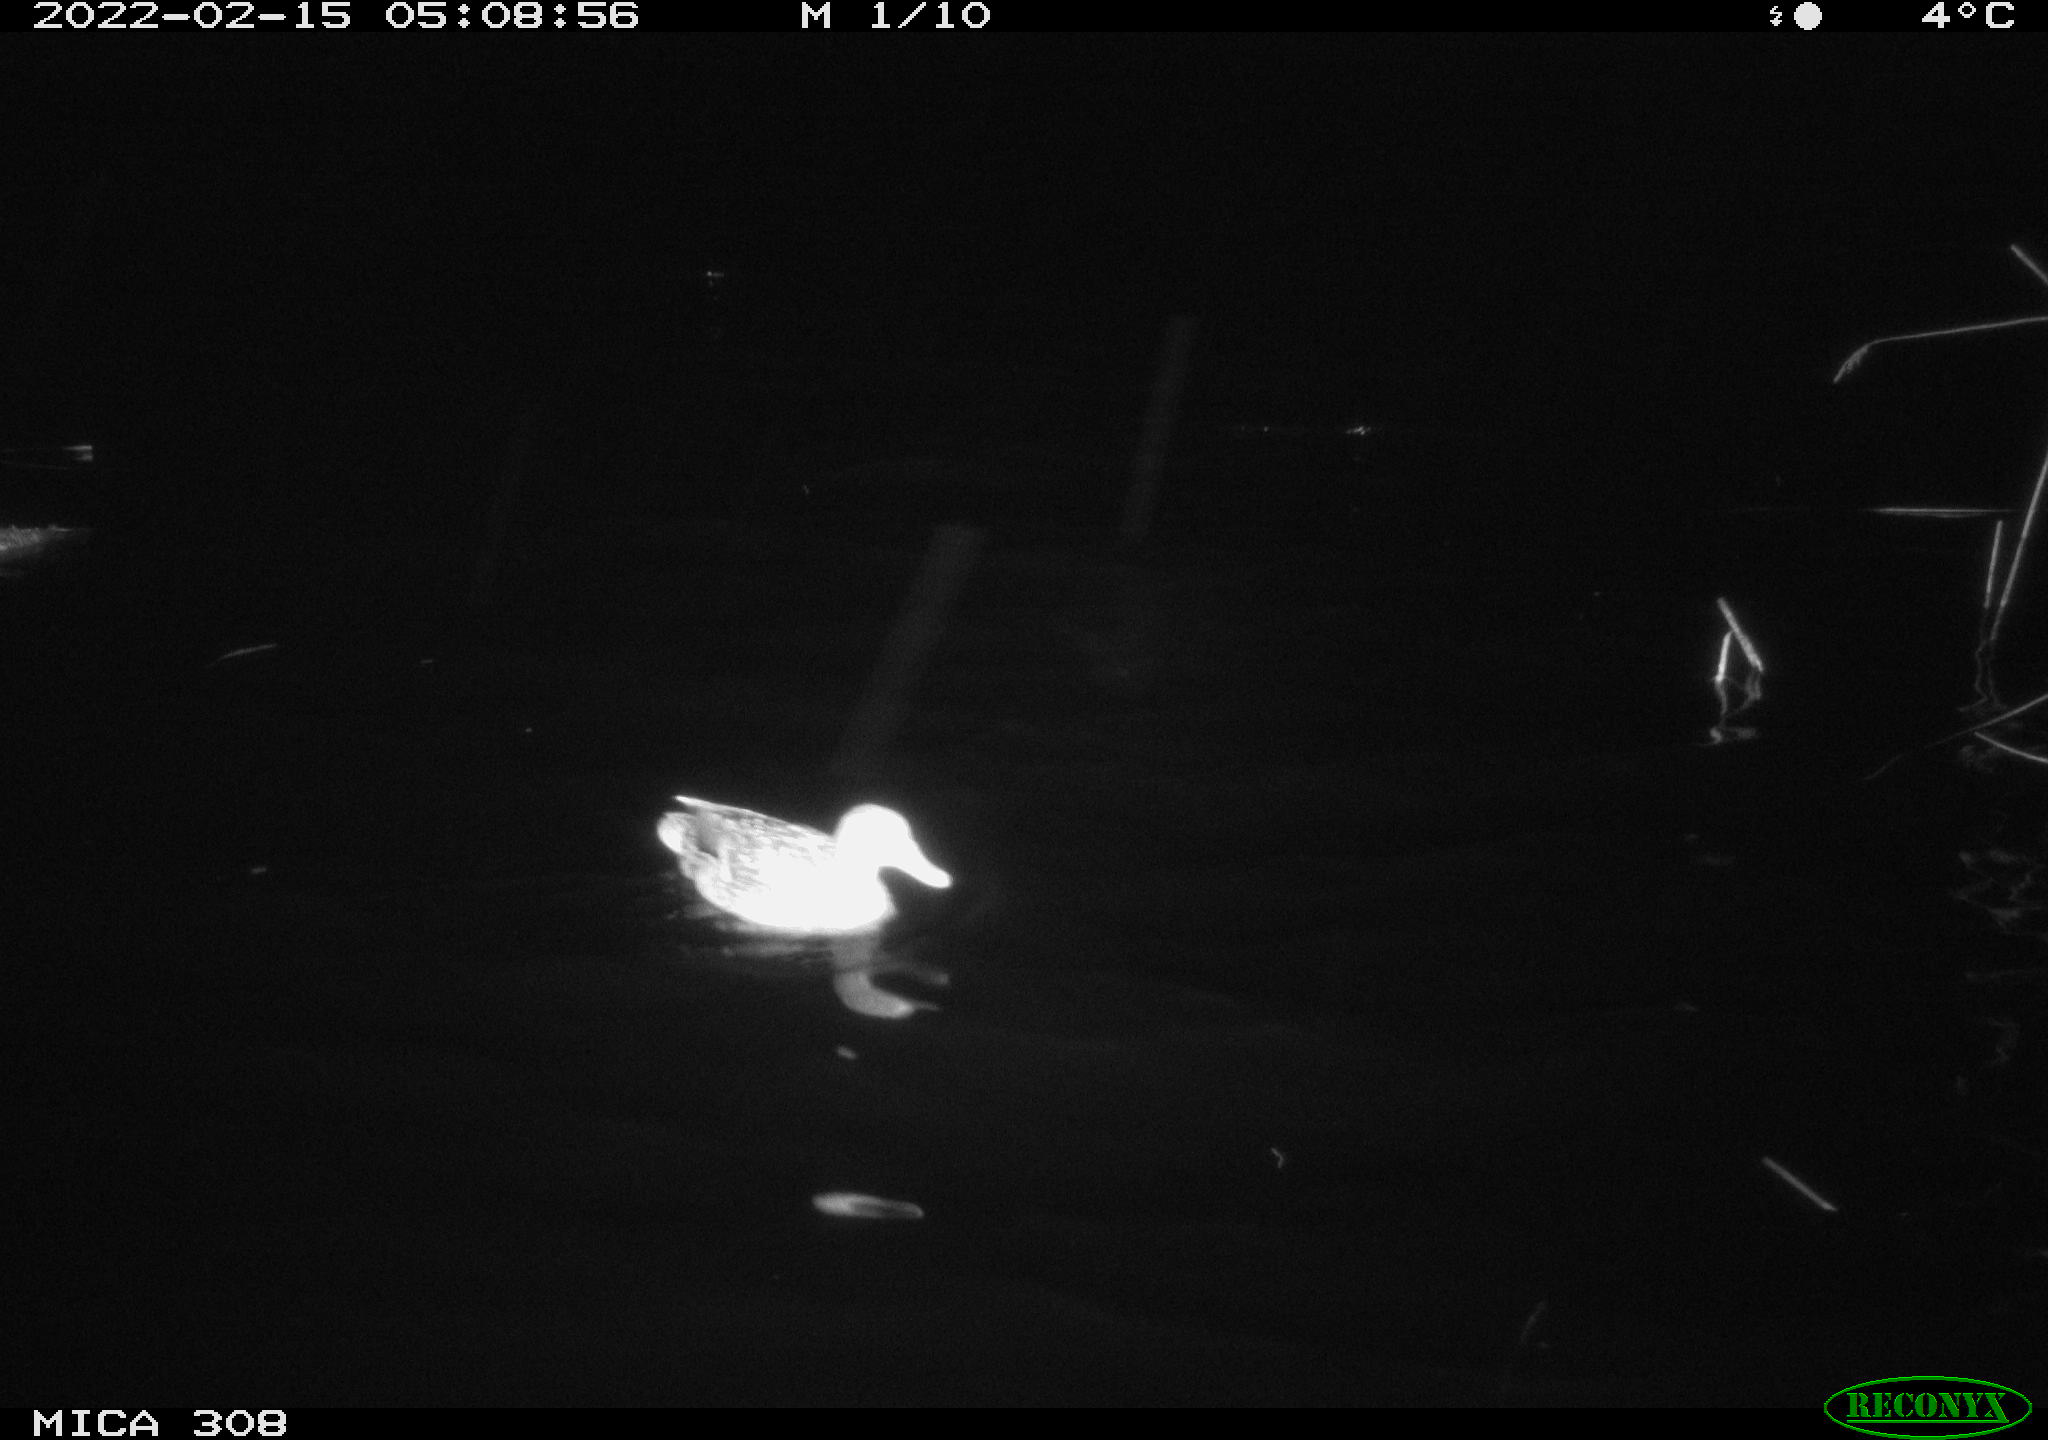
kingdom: Animalia
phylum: Chordata
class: Aves
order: Anseriformes
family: Anatidae
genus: Anas
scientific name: Anas platyrhynchos
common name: Mallard
